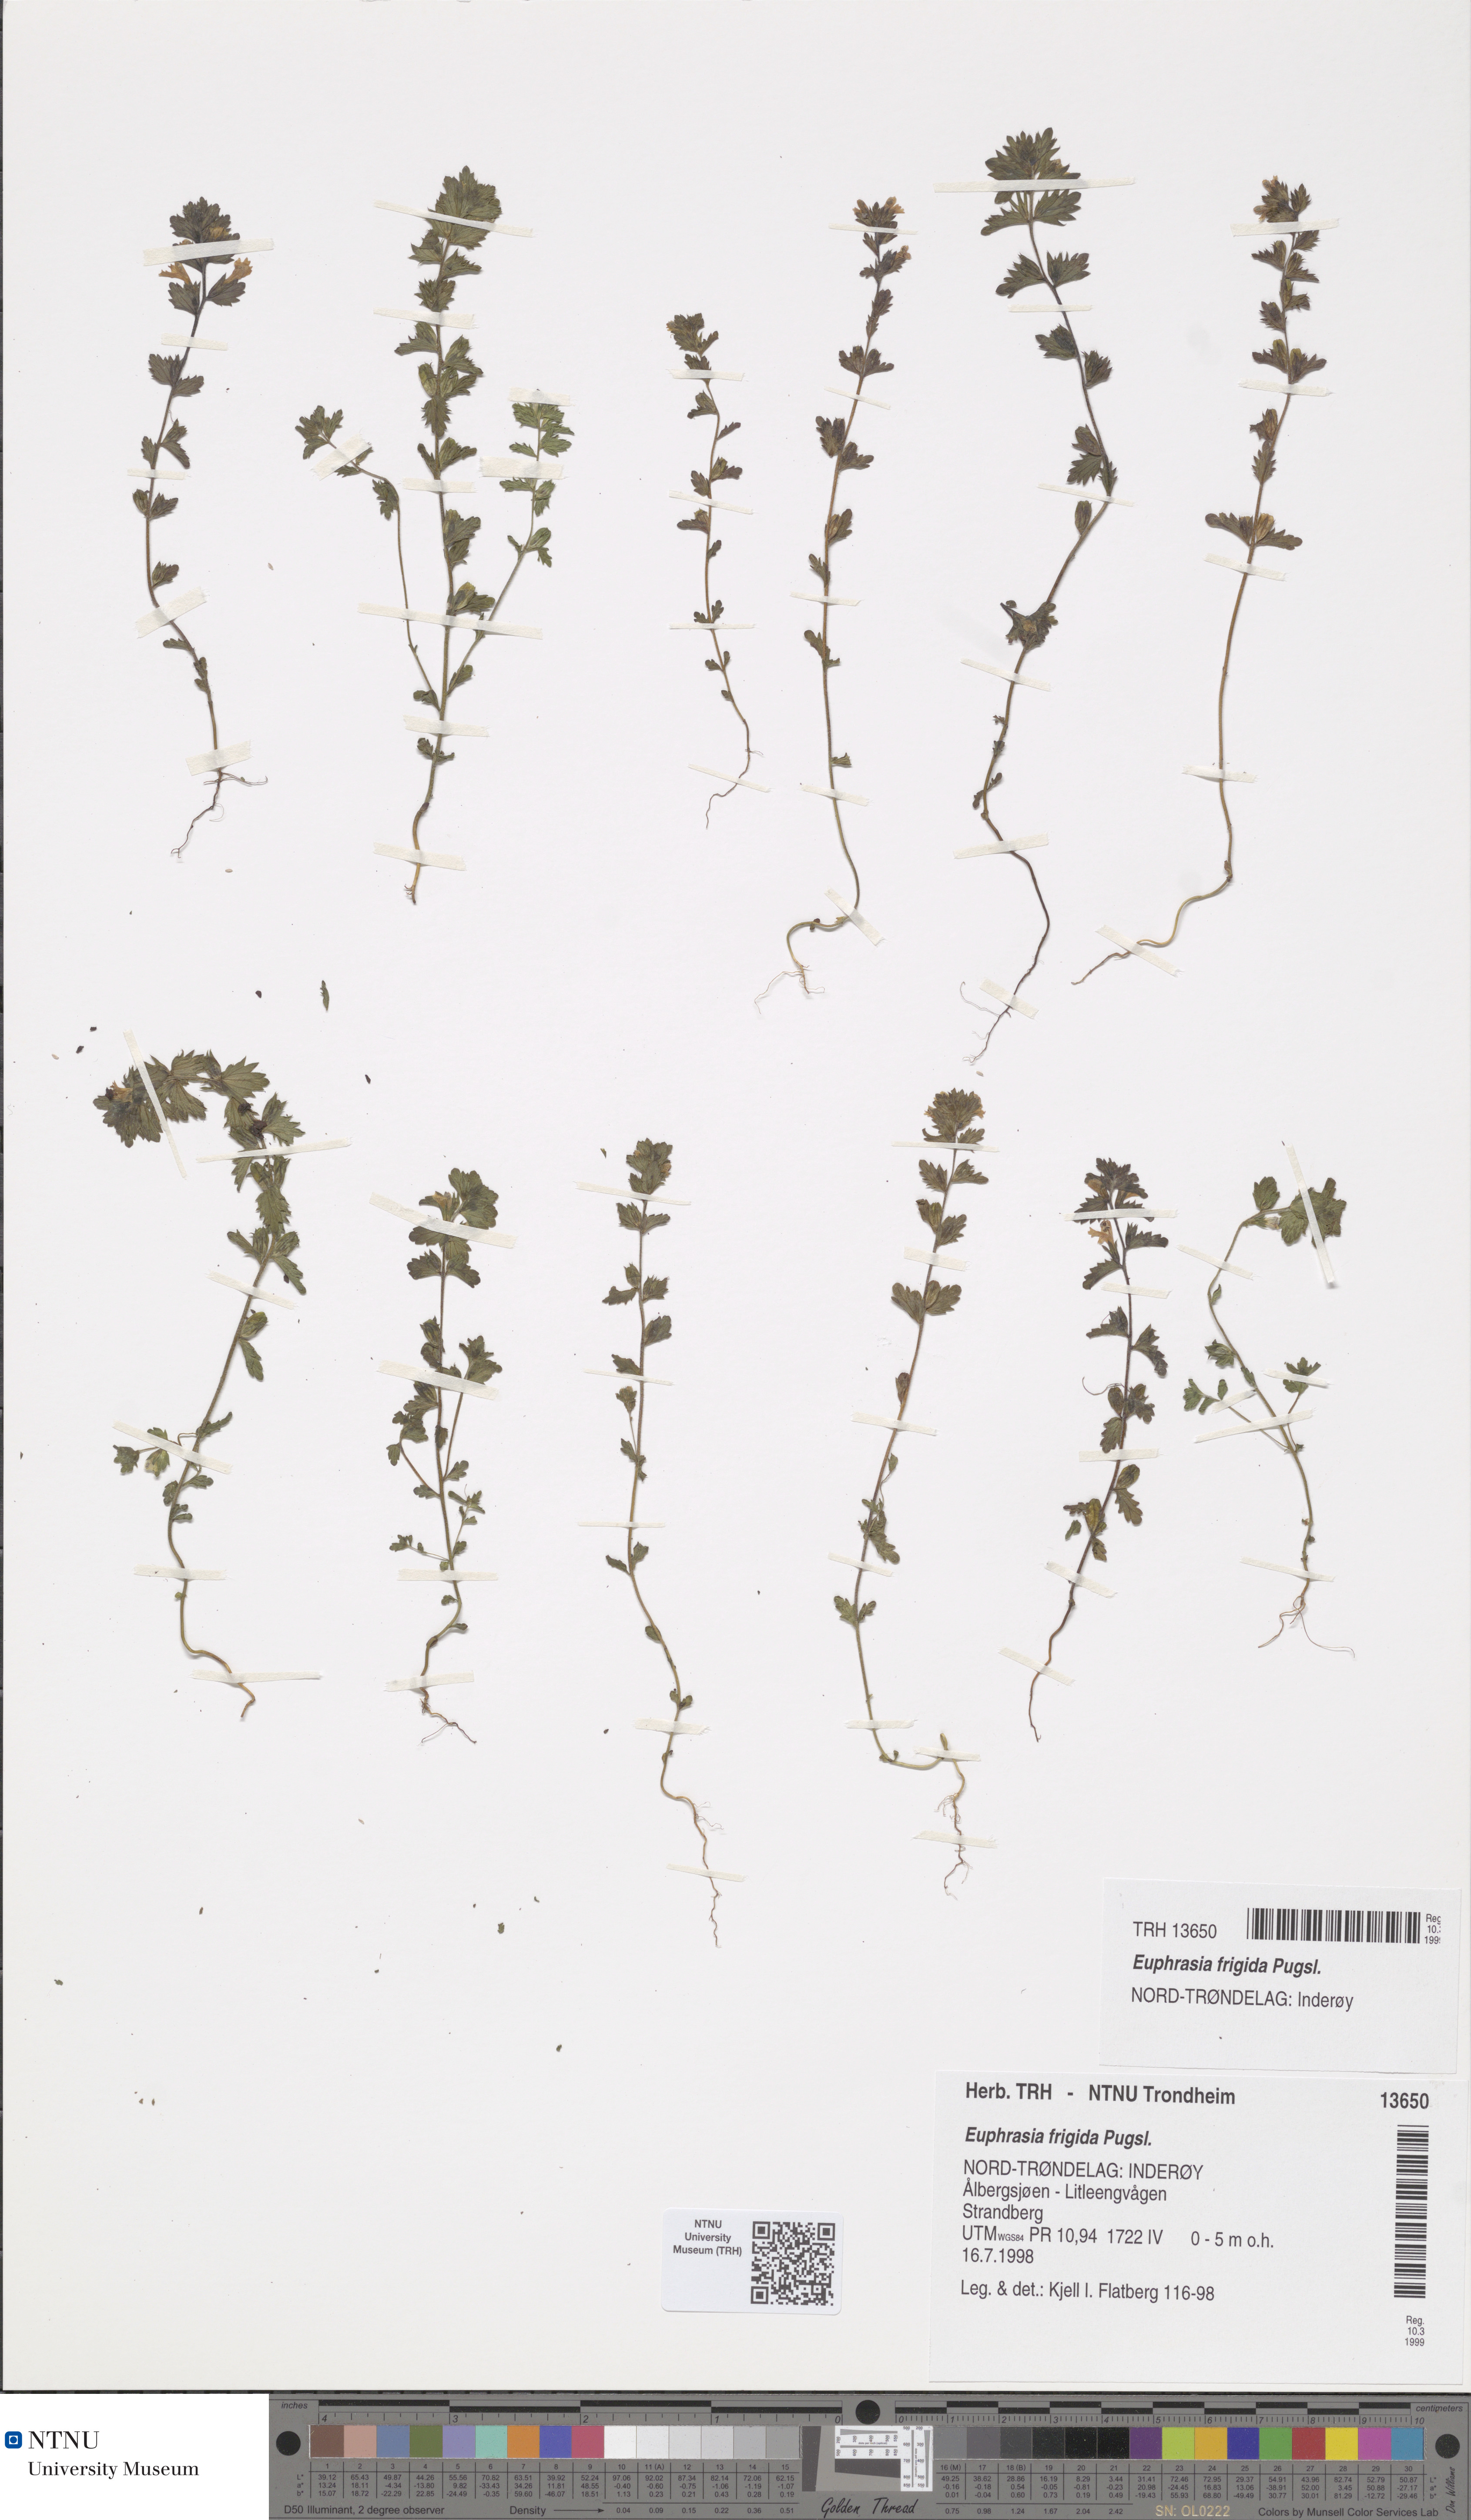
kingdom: Plantae
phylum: Tracheophyta
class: Magnoliopsida
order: Lamiales
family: Orobanchaceae
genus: Euphrasia
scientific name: Euphrasia wettsteinii
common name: Wettstein's eyebright
